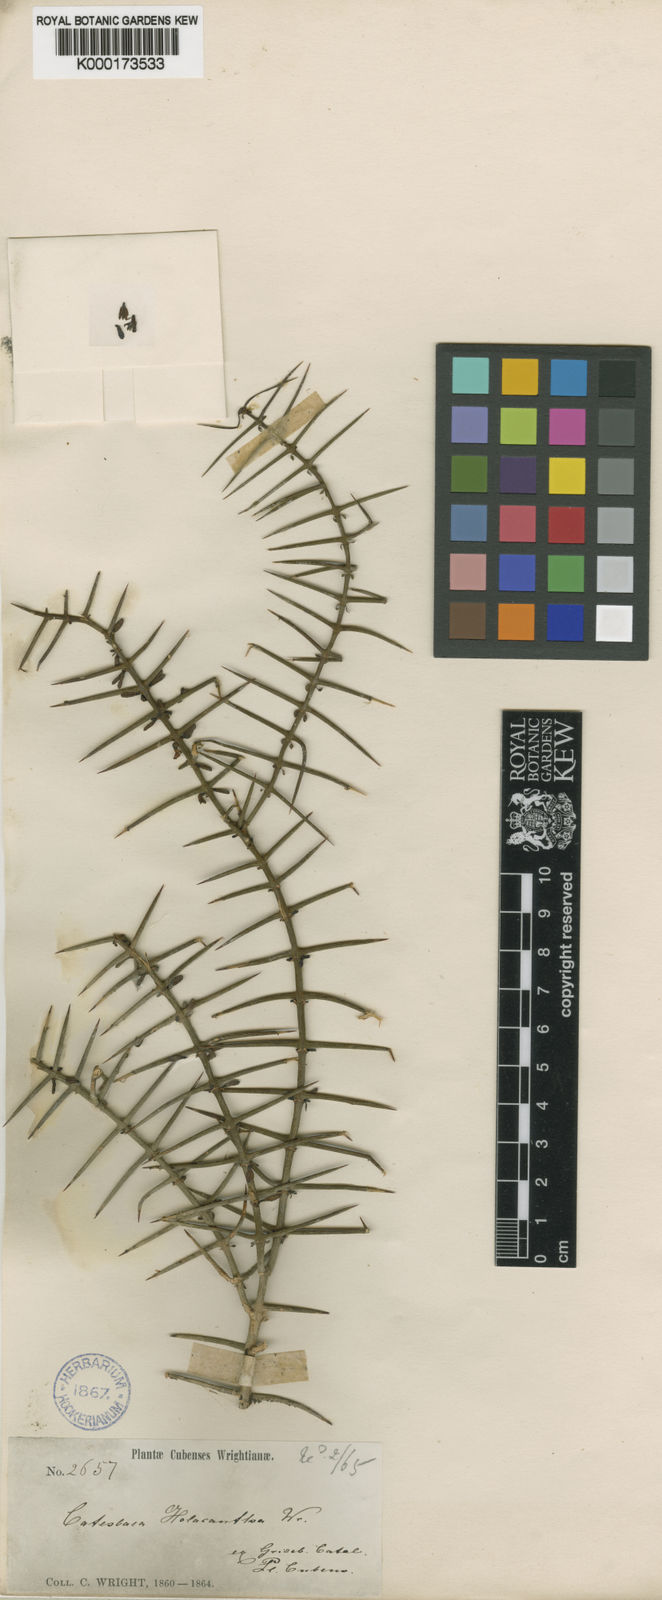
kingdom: Plantae
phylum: Tracheophyta
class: Magnoliopsida
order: Gentianales
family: Rubiaceae
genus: Catesbaea
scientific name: Catesbaea holacantha
